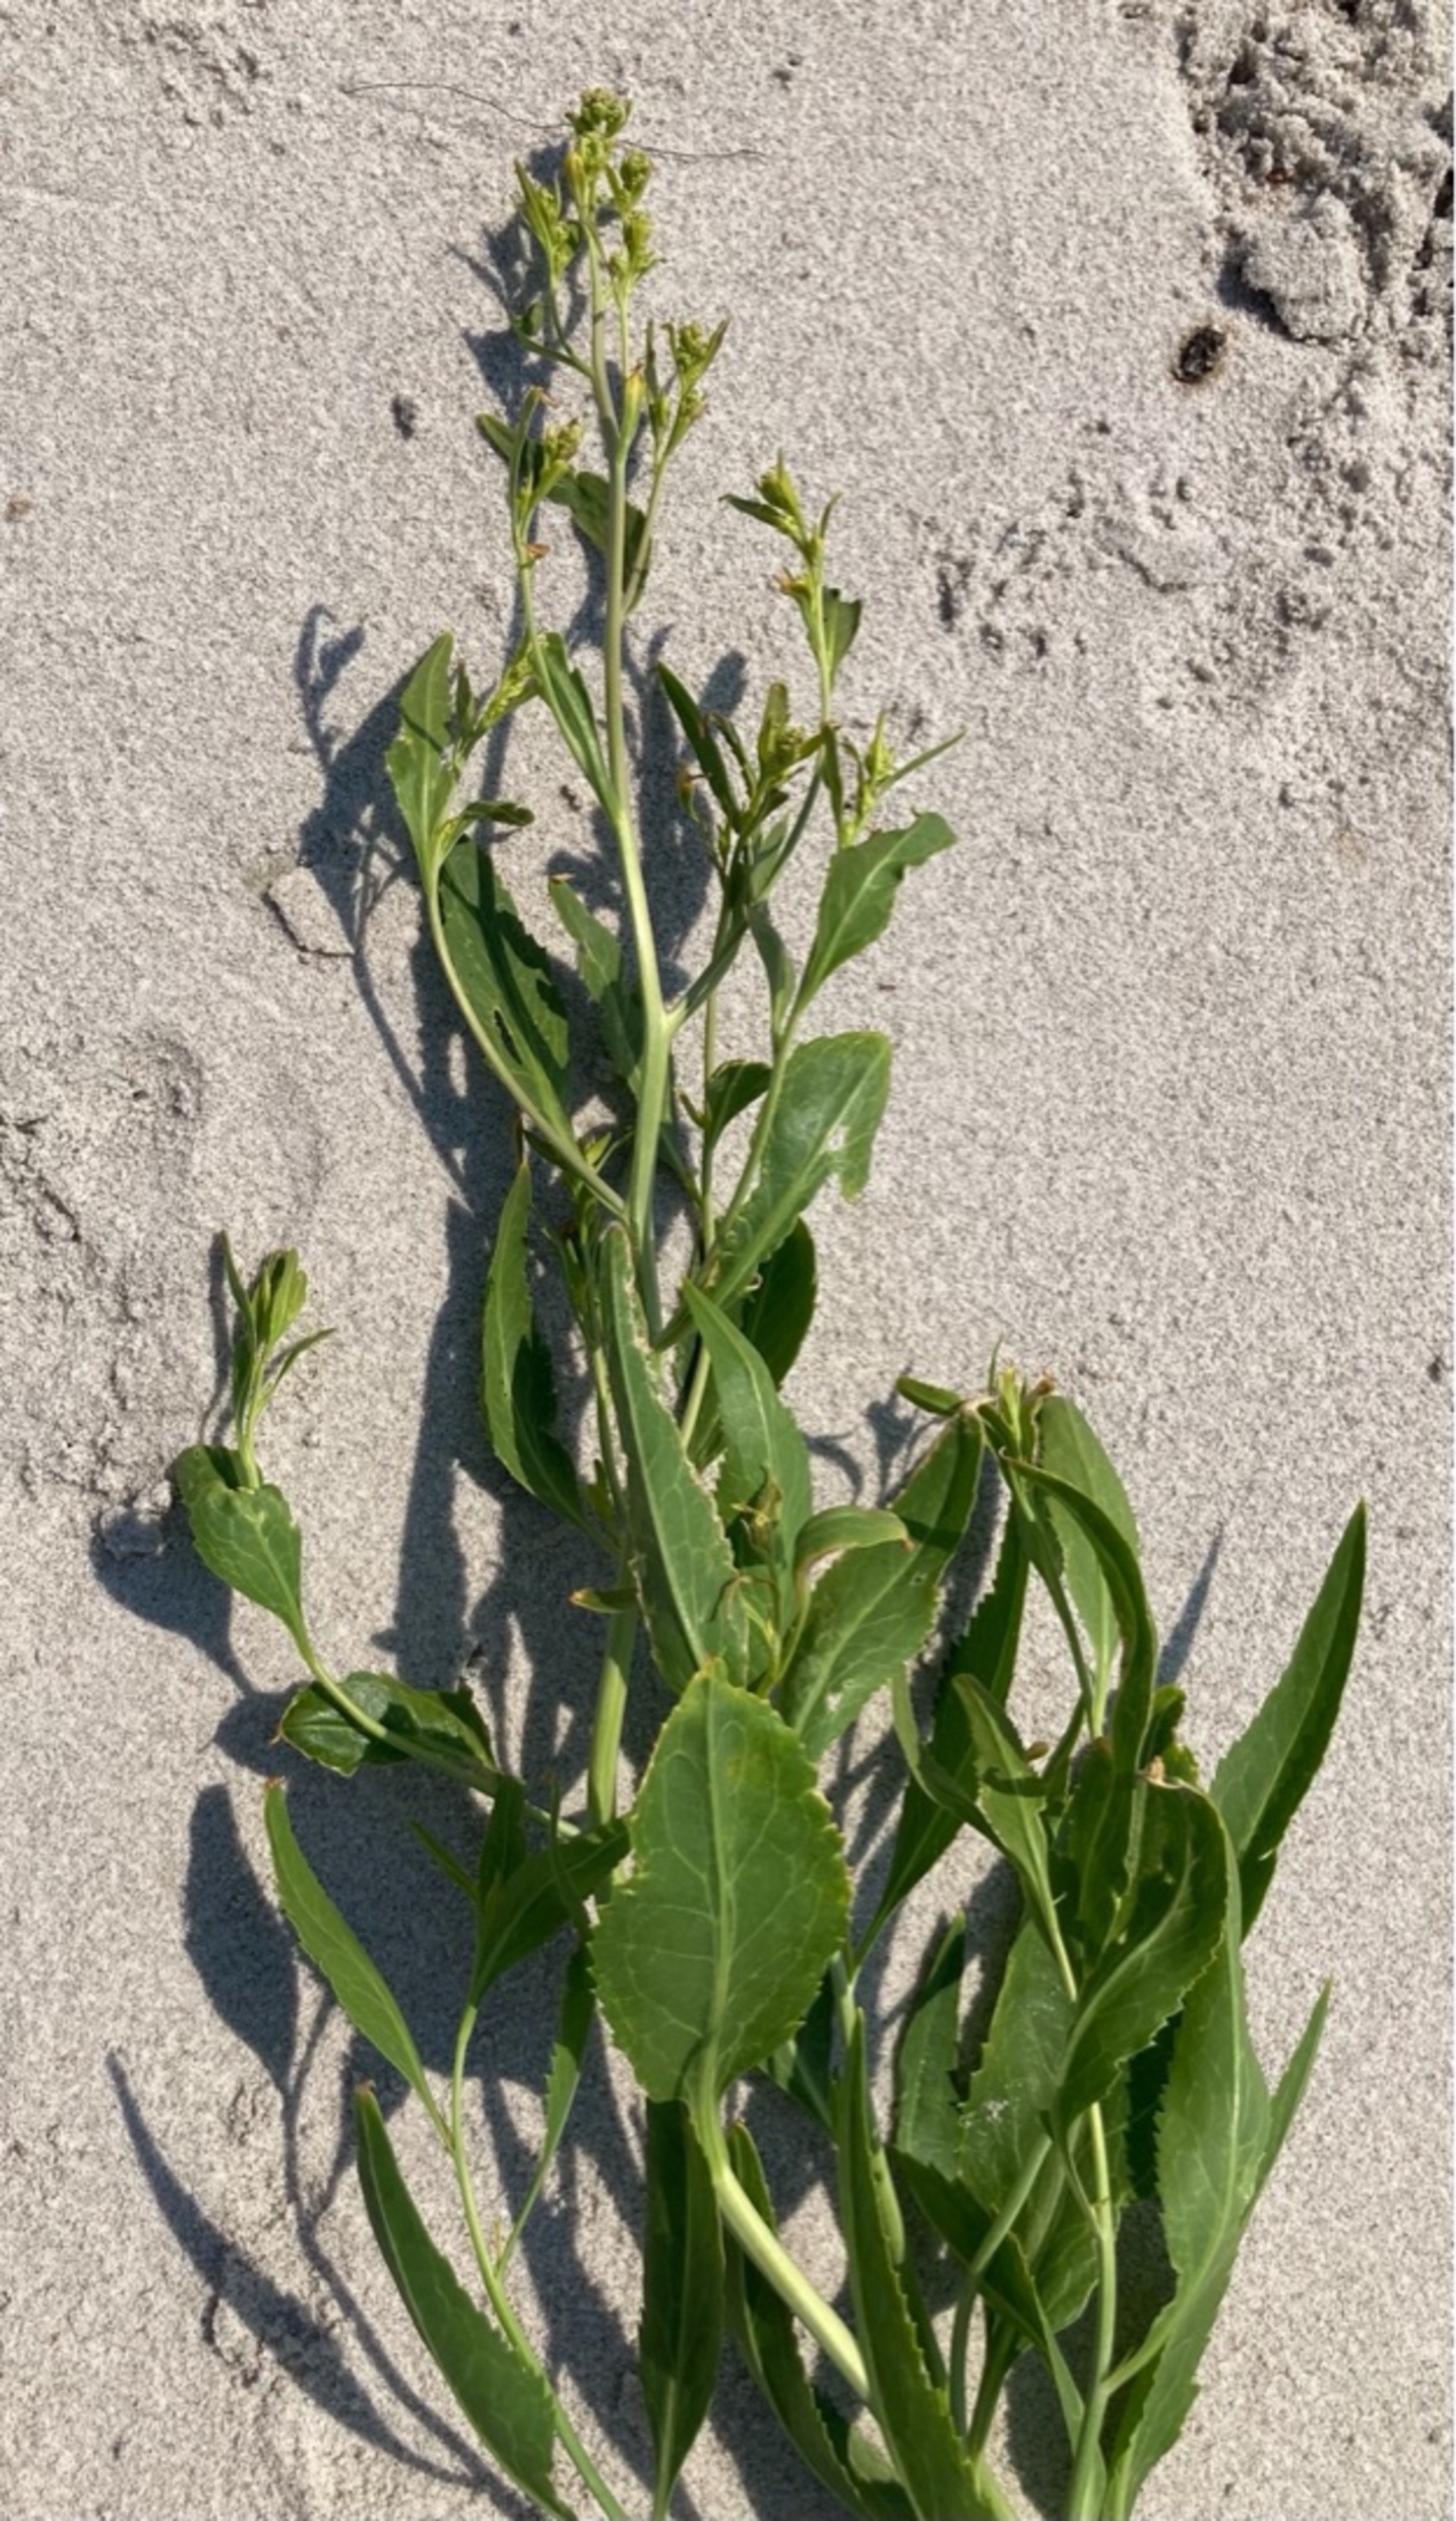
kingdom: Plantae
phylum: Tracheophyta
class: Magnoliopsida
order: Brassicales
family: Brassicaceae
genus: Lepidium
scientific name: Lepidium latifolium
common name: Strand-karse
